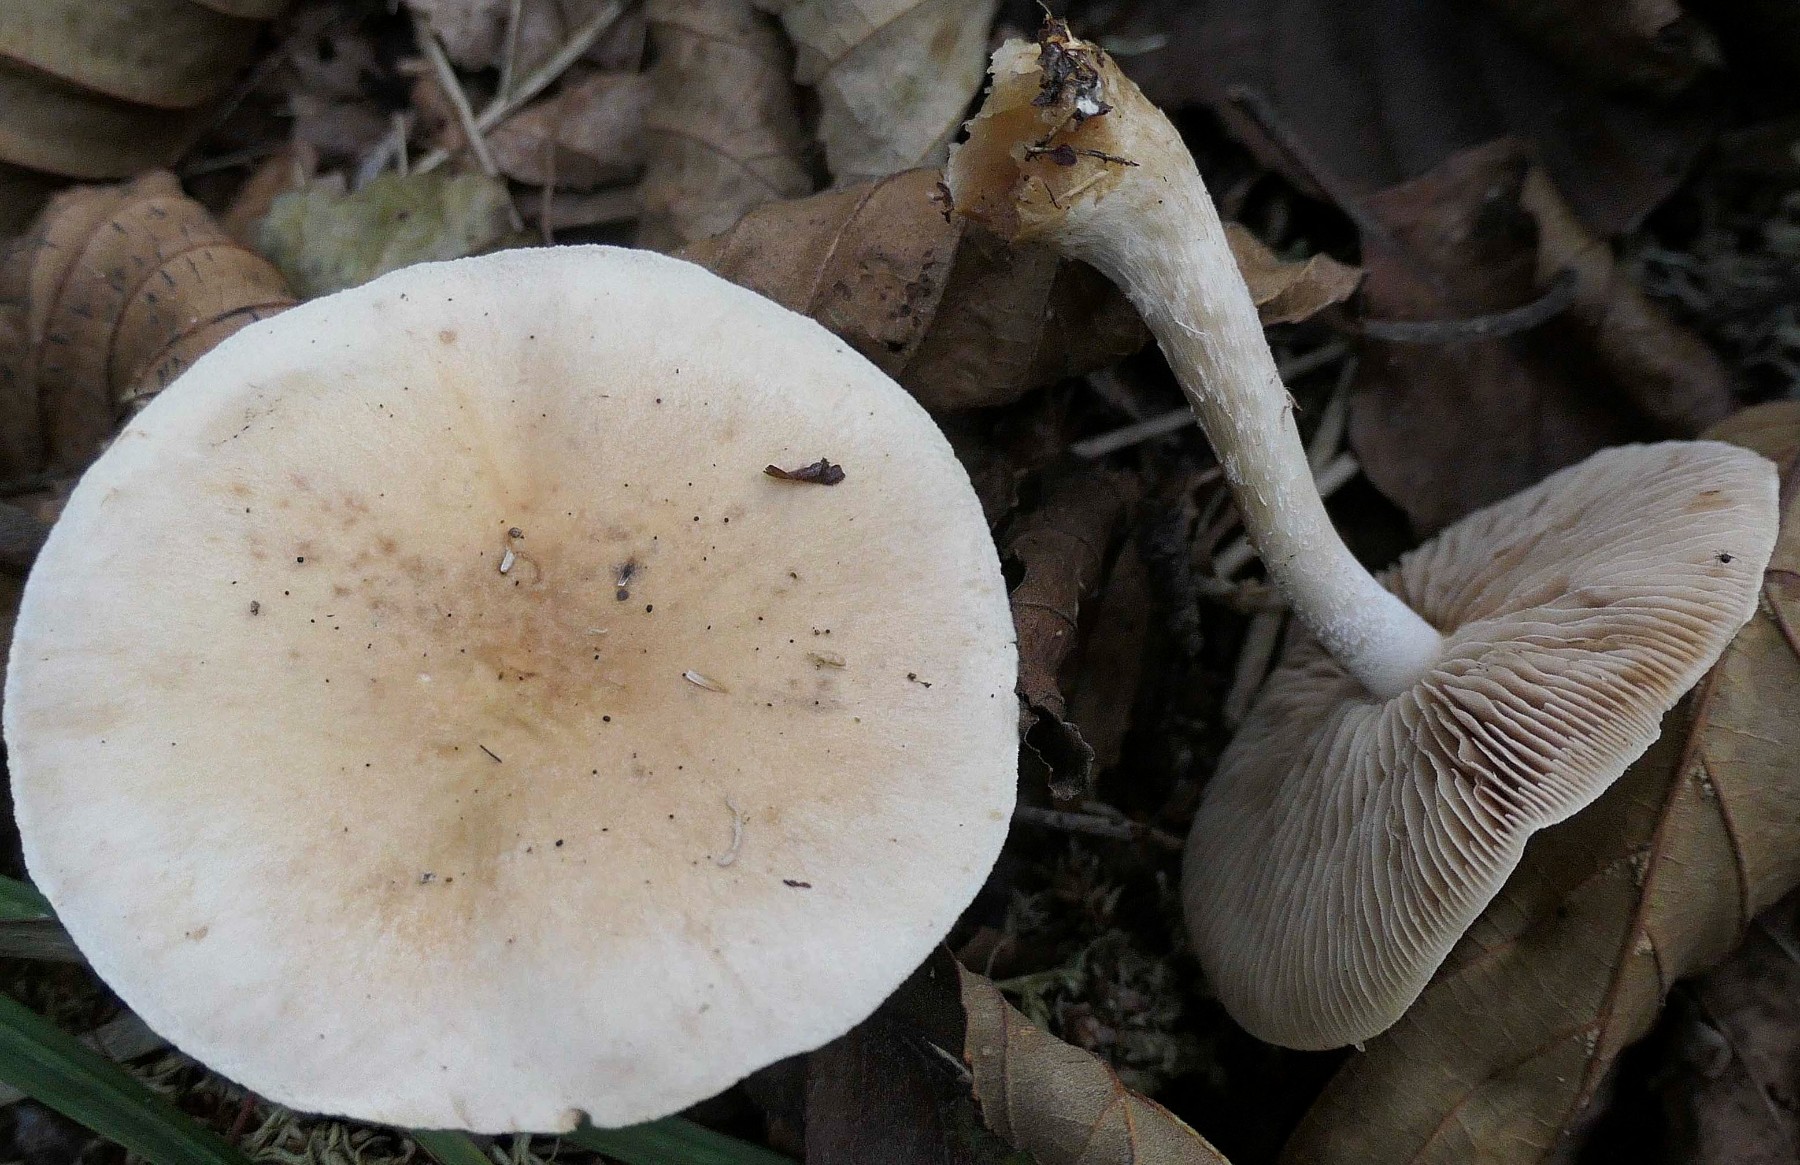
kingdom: Fungi
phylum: Basidiomycota
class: Agaricomycetes
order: Agaricales
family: Hymenogastraceae
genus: Hebeloma
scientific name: Hebeloma
